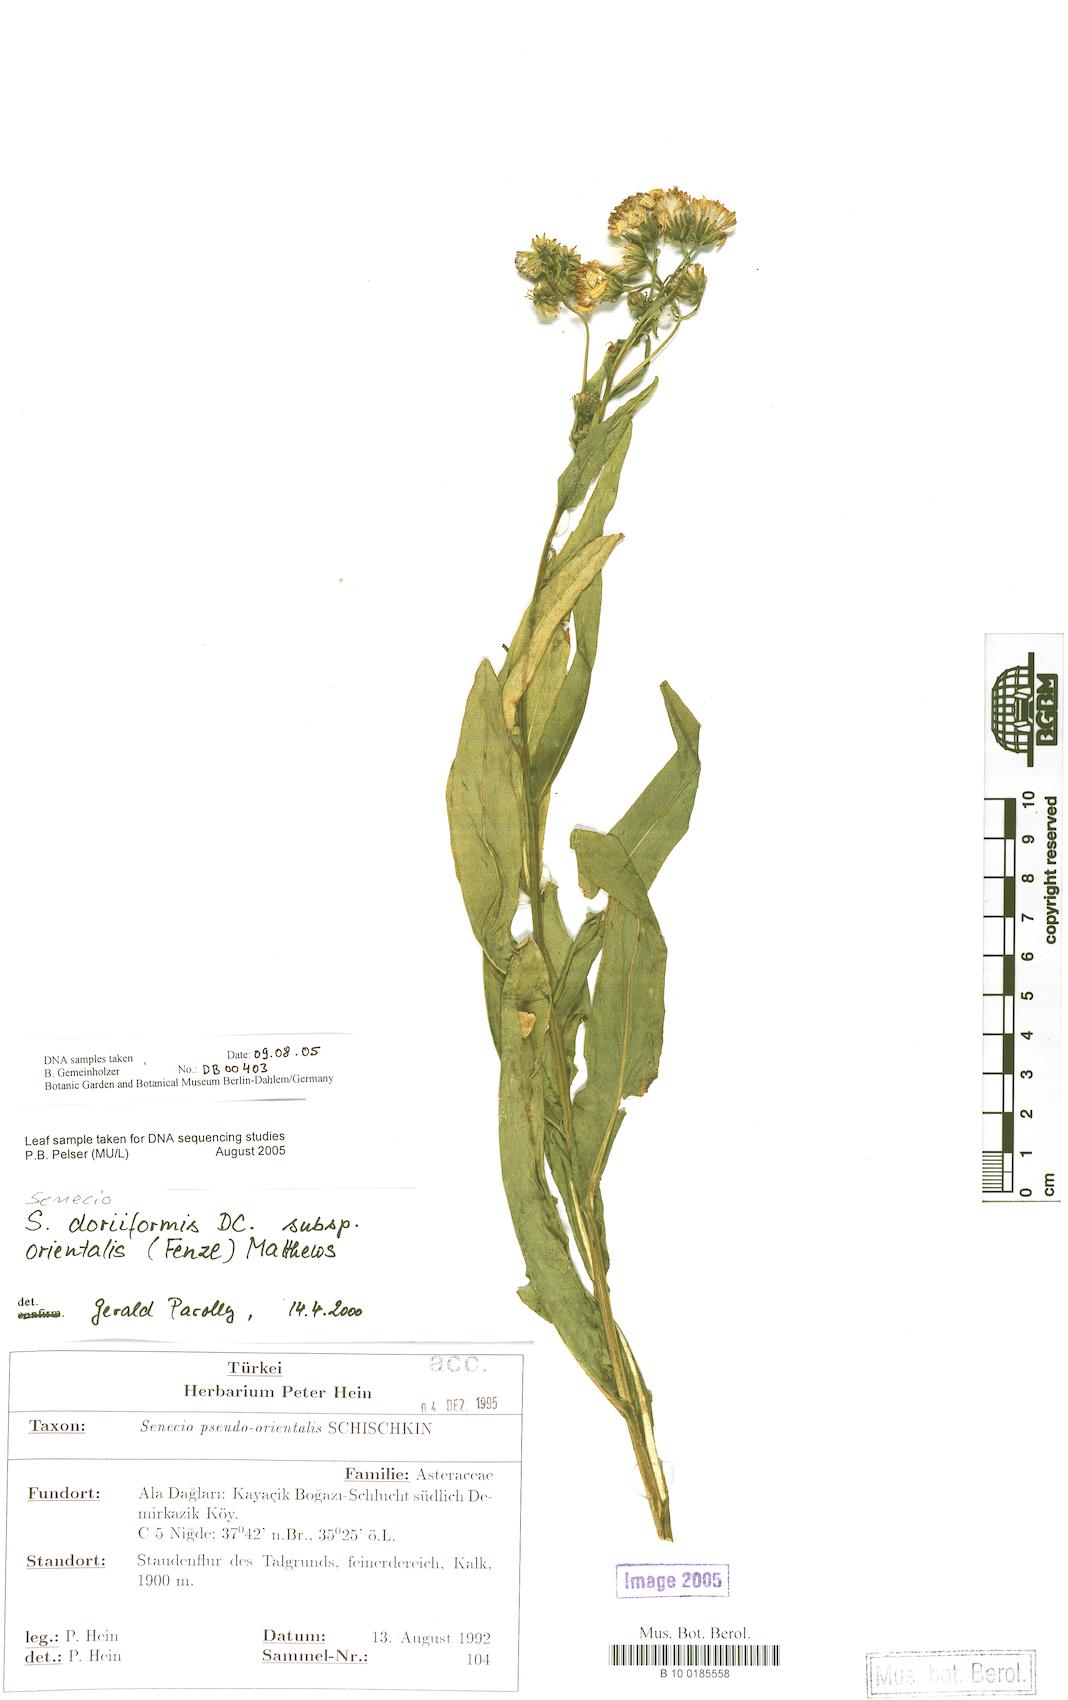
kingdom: Plantae
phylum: Tracheophyta
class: Magnoliopsida
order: Asterales
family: Asteraceae
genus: Senecio
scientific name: Senecio pseudoorientalis
